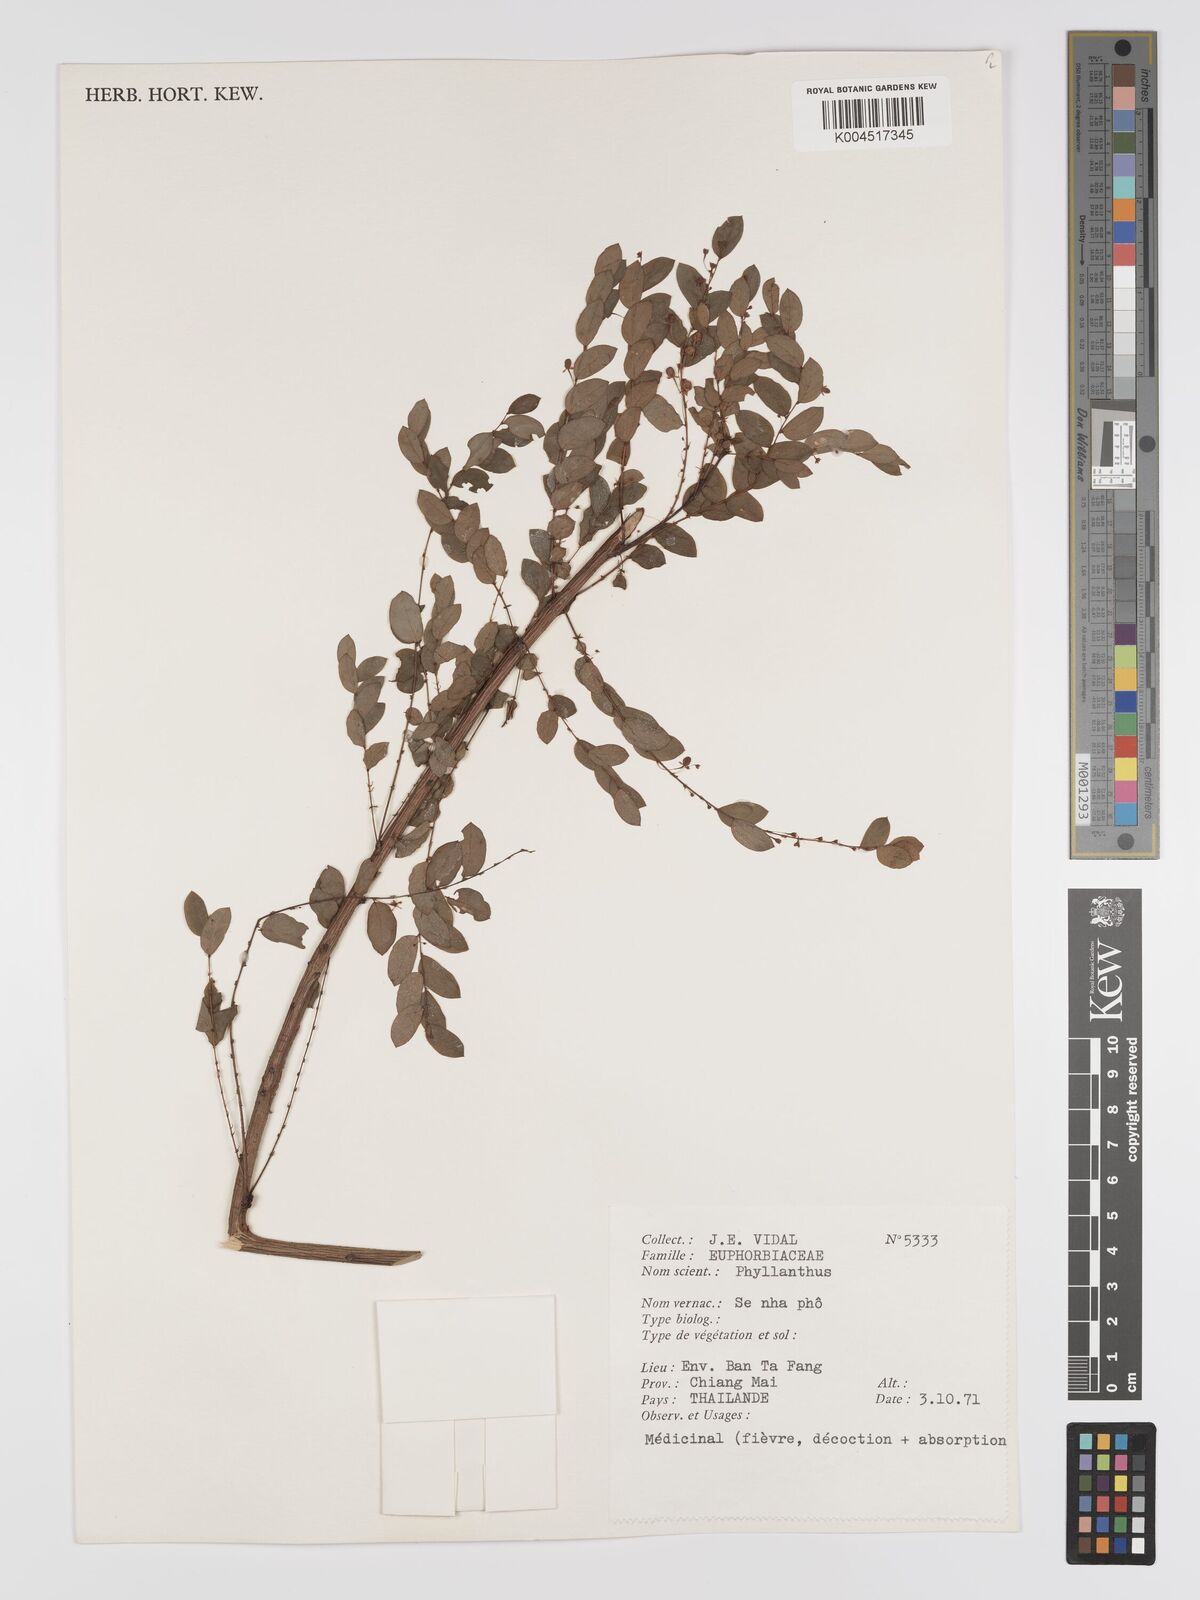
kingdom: Plantae
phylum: Tracheophyta
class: Magnoliopsida
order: Malpighiales
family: Phyllanthaceae
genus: Phyllanthus
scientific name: Phyllanthus reticulatus
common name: Potato bush
